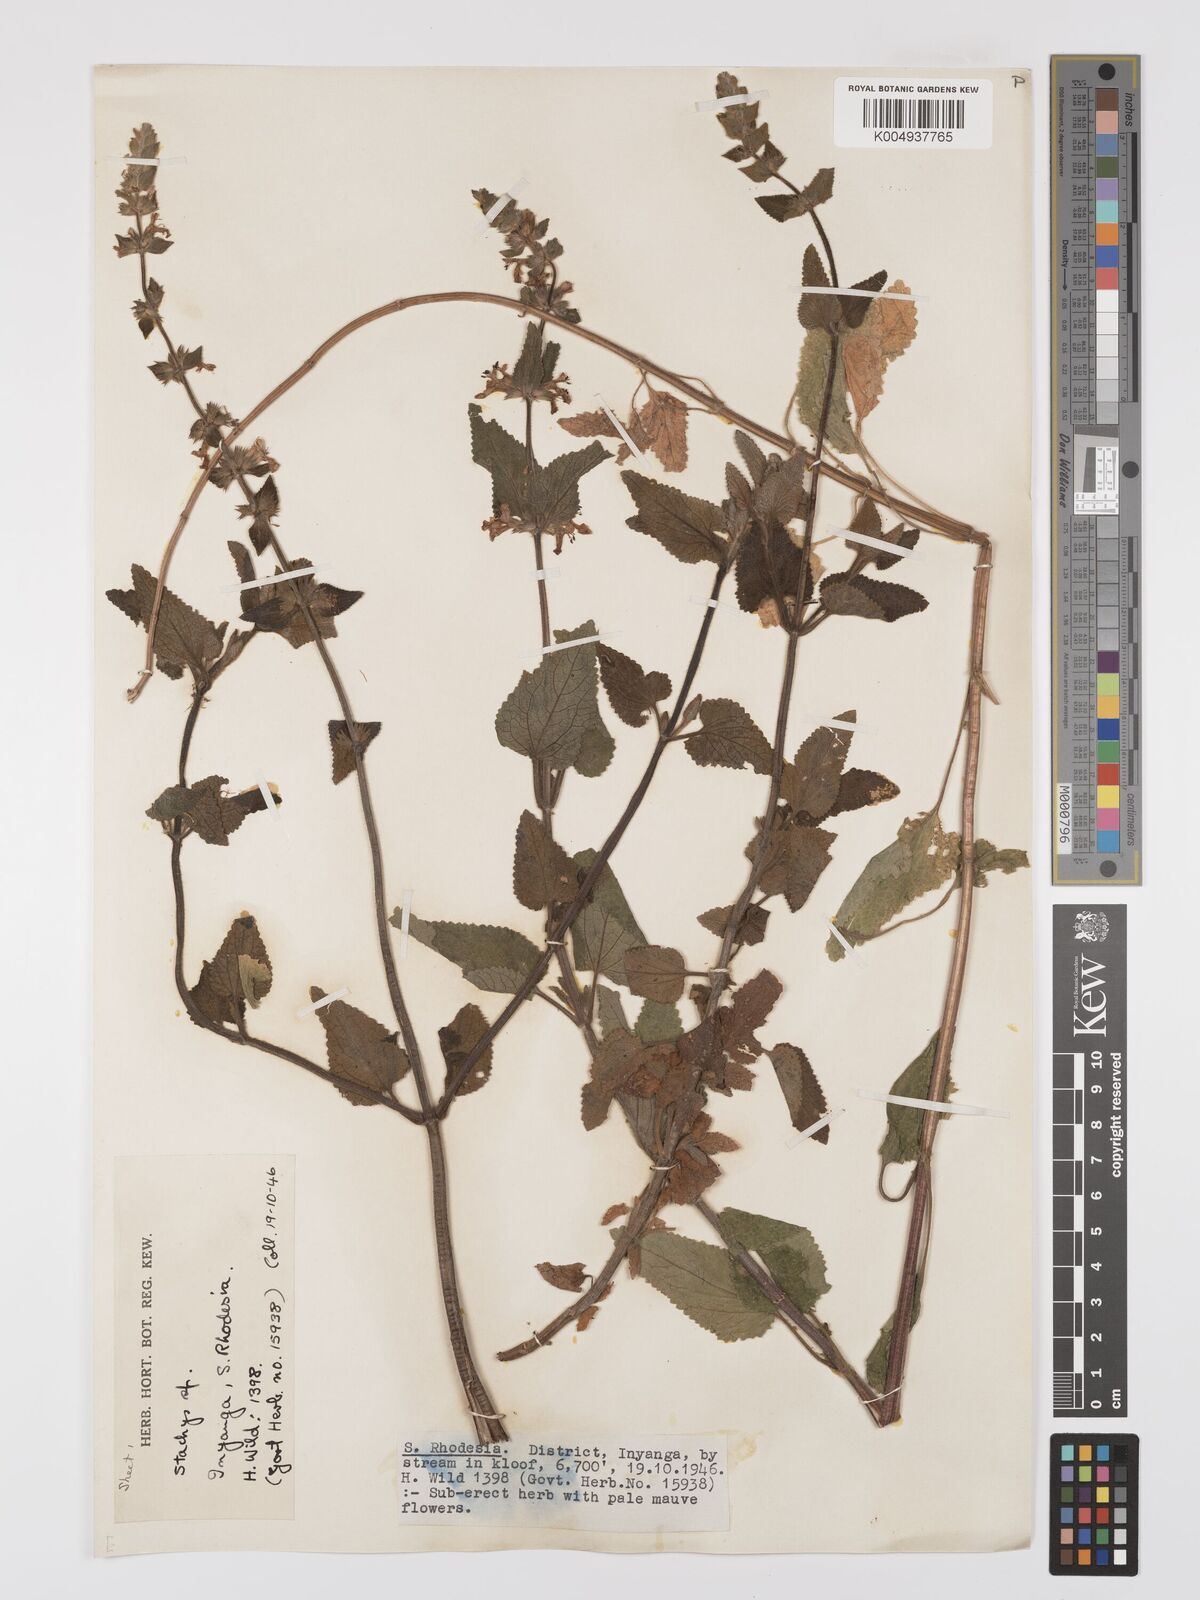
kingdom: Plantae
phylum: Tracheophyta
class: Magnoliopsida
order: Lamiales
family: Lamiaceae
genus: Stachys
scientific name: Stachys aethiopica
